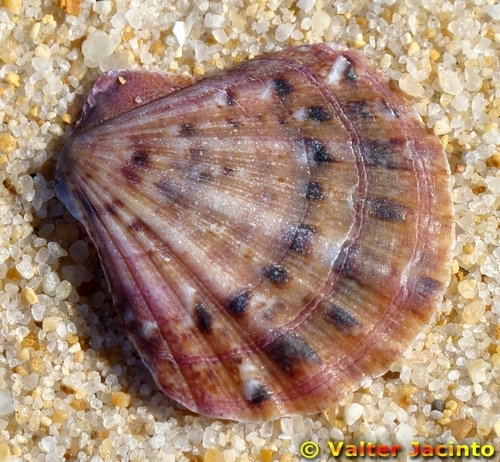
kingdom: Animalia
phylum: Mollusca
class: Bivalvia
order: Pectinida
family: Pectinidae
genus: Aequipecten
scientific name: Aequipecten opercularis
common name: Queen scallop
